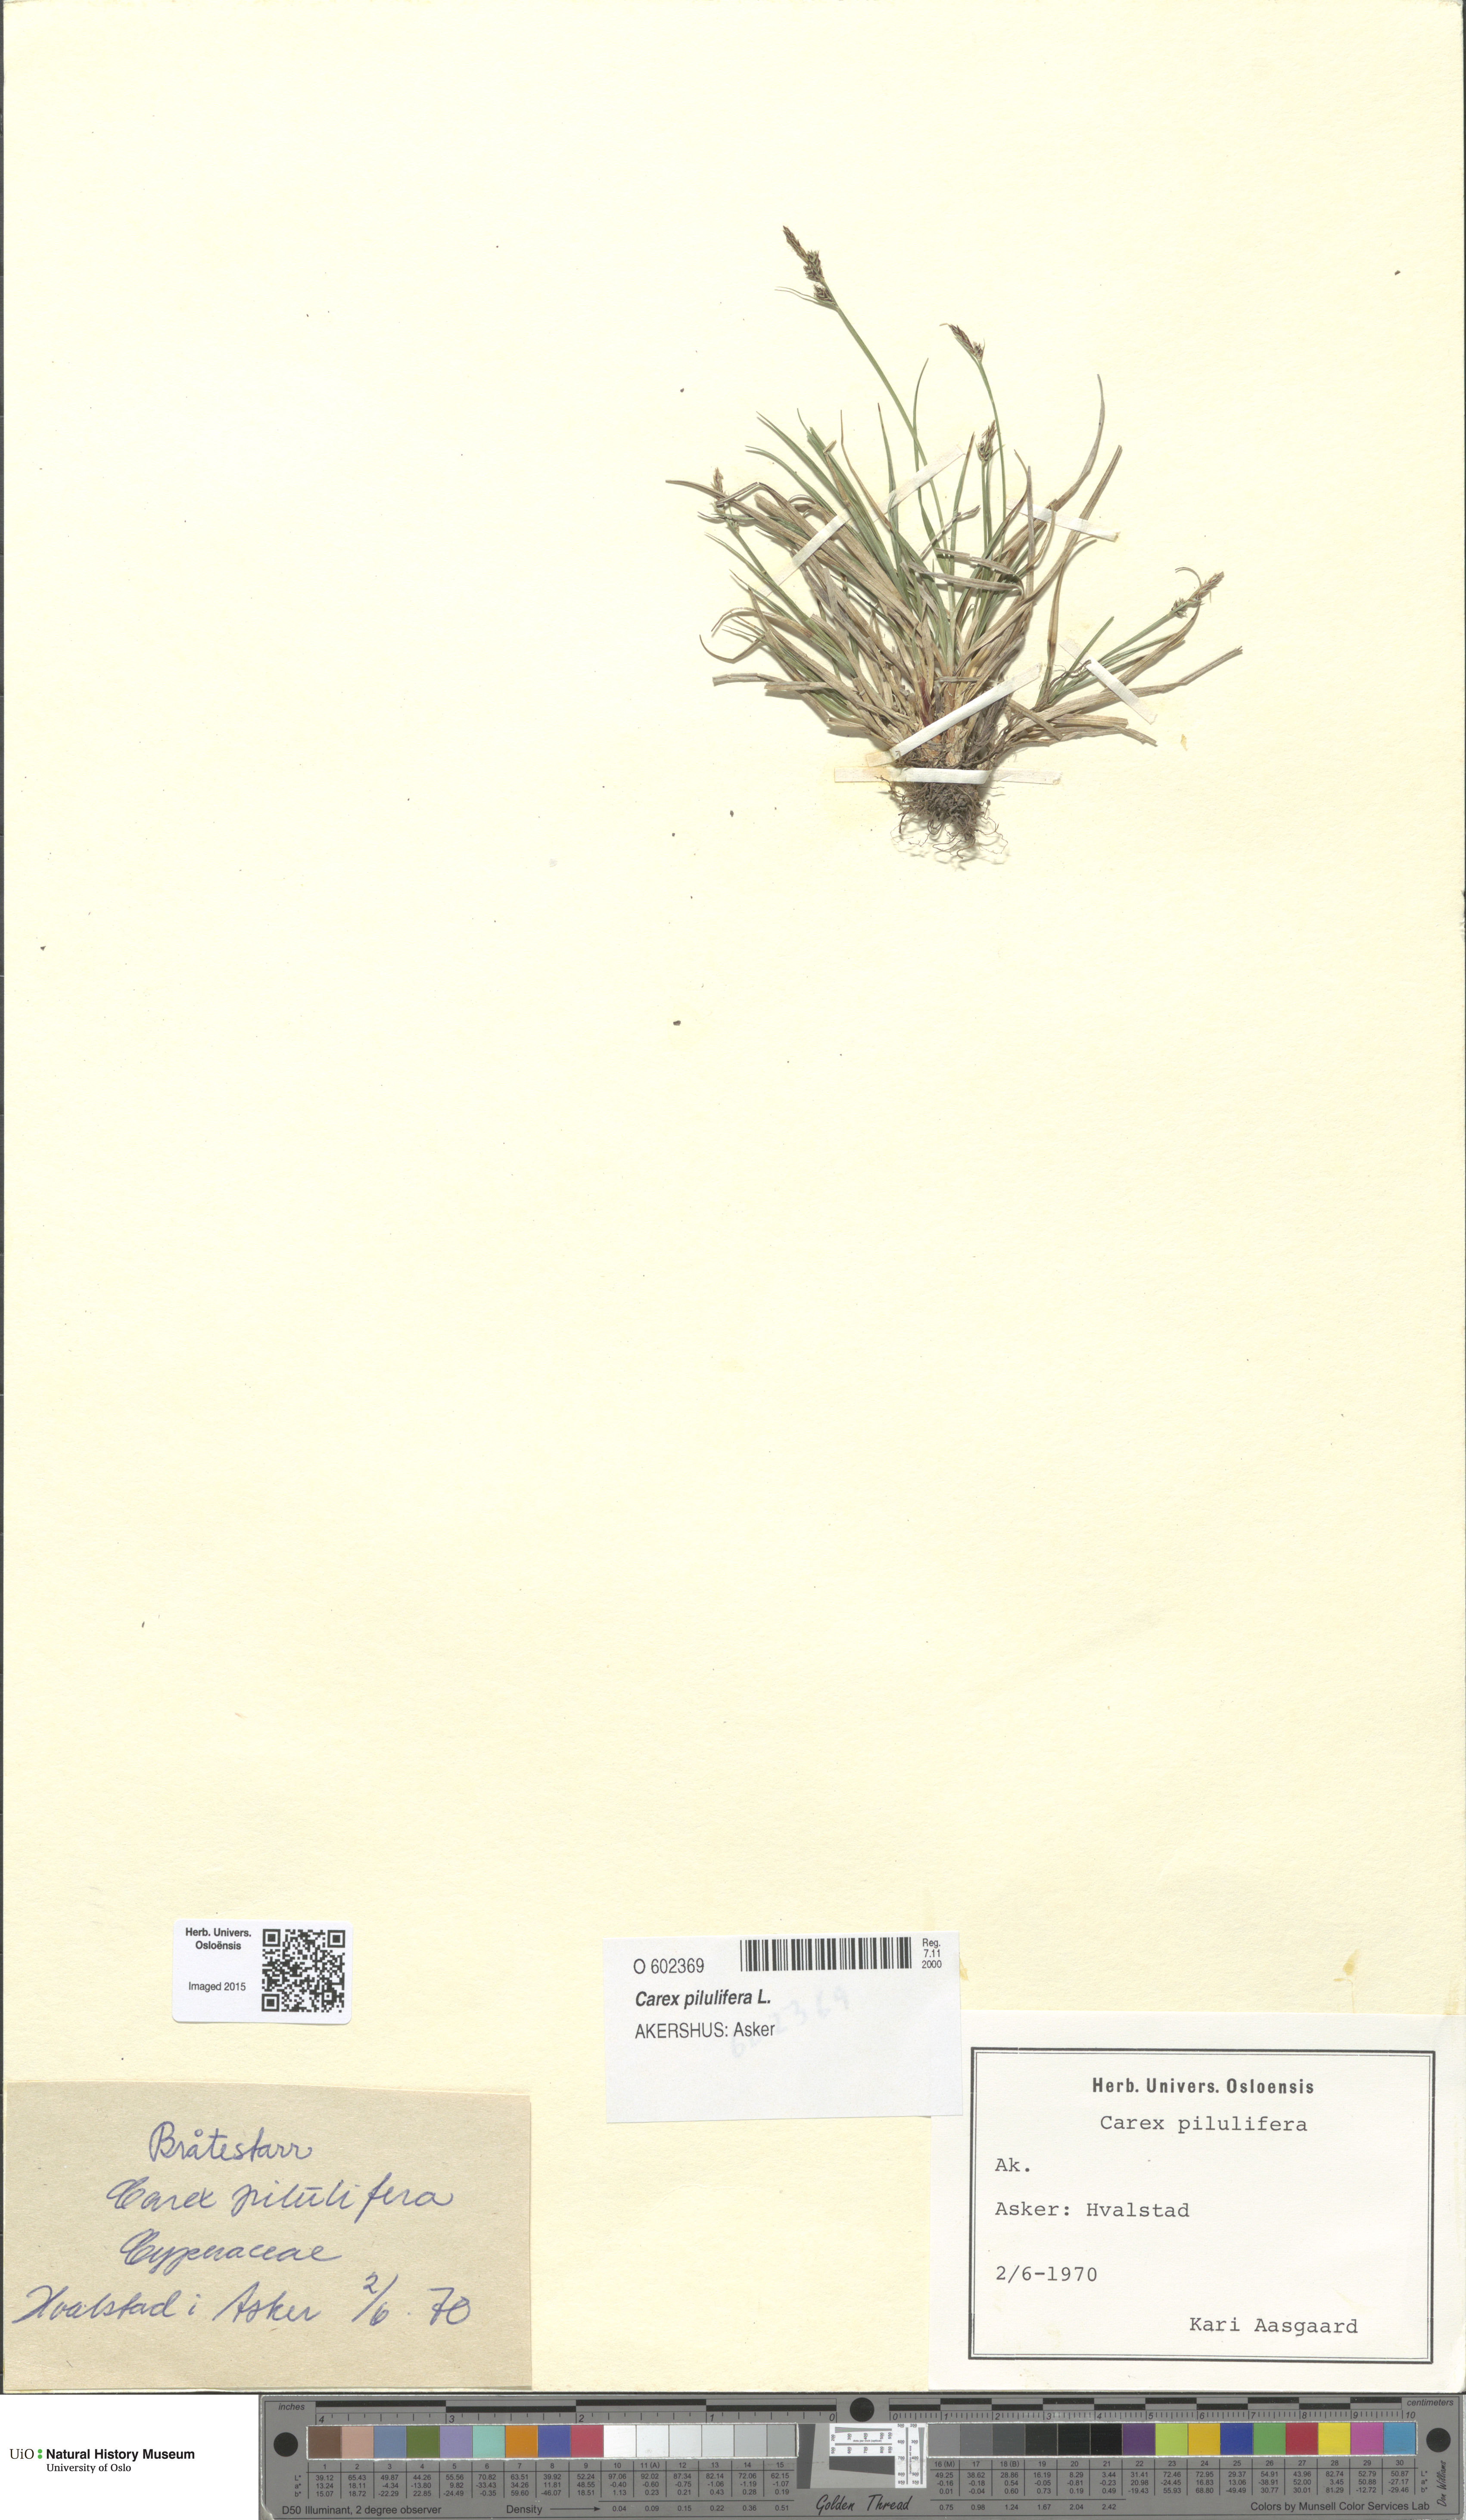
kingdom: Plantae
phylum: Tracheophyta
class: Liliopsida
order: Poales
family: Cyperaceae
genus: Carex
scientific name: Carex pilulifera
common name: Pill sedge
